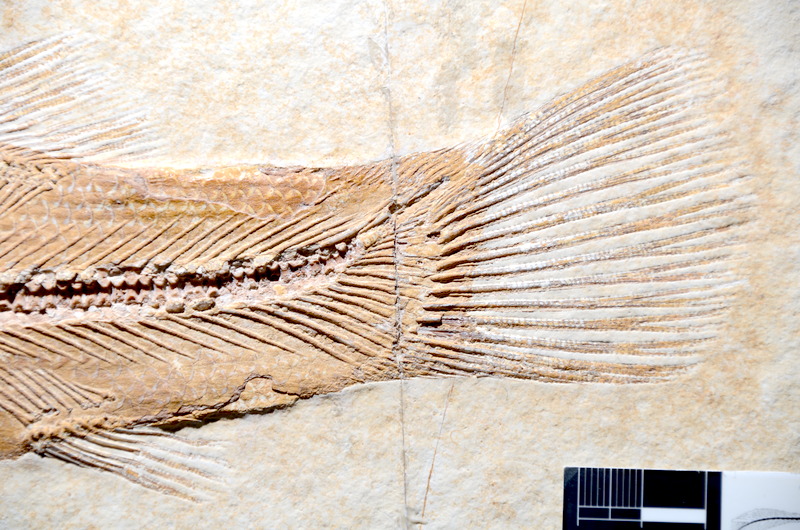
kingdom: Animalia
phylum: Chordata
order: Amiiformes
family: Amiidae
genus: Amiopsis
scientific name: Amiopsis lepidota
